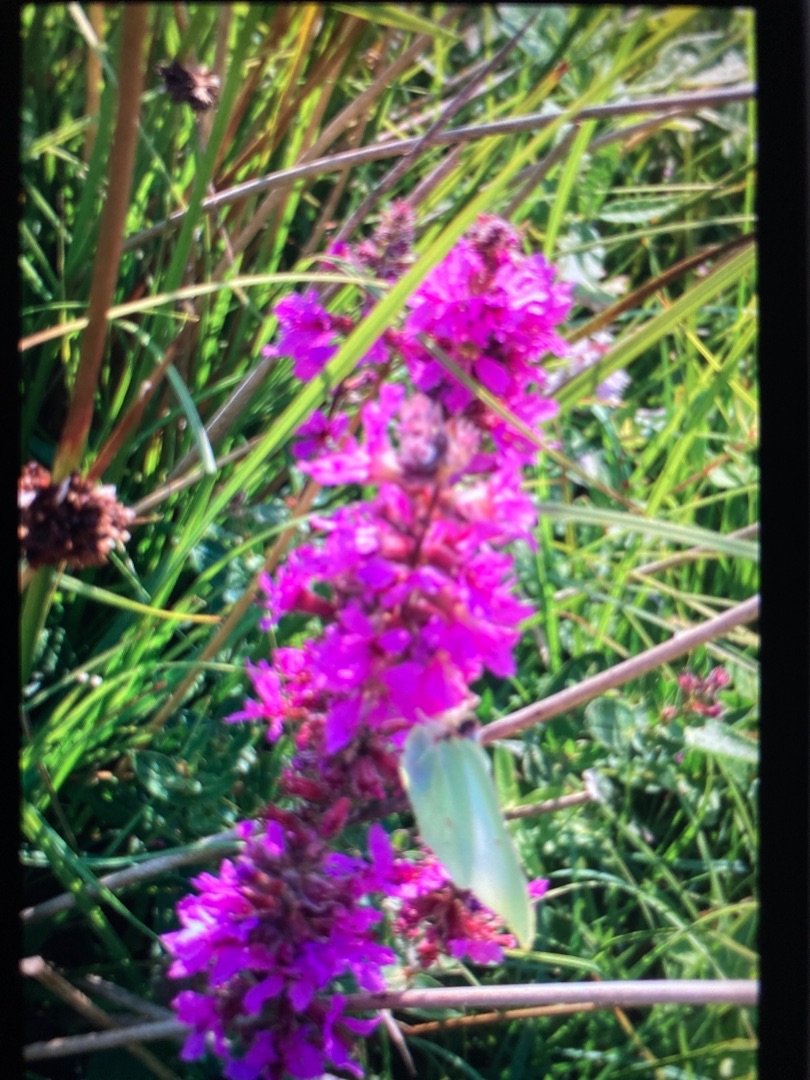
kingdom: Plantae
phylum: Tracheophyta
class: Magnoliopsida
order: Myrtales
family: Lythraceae
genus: Lythrum
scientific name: Lythrum salicaria
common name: Kattehale
